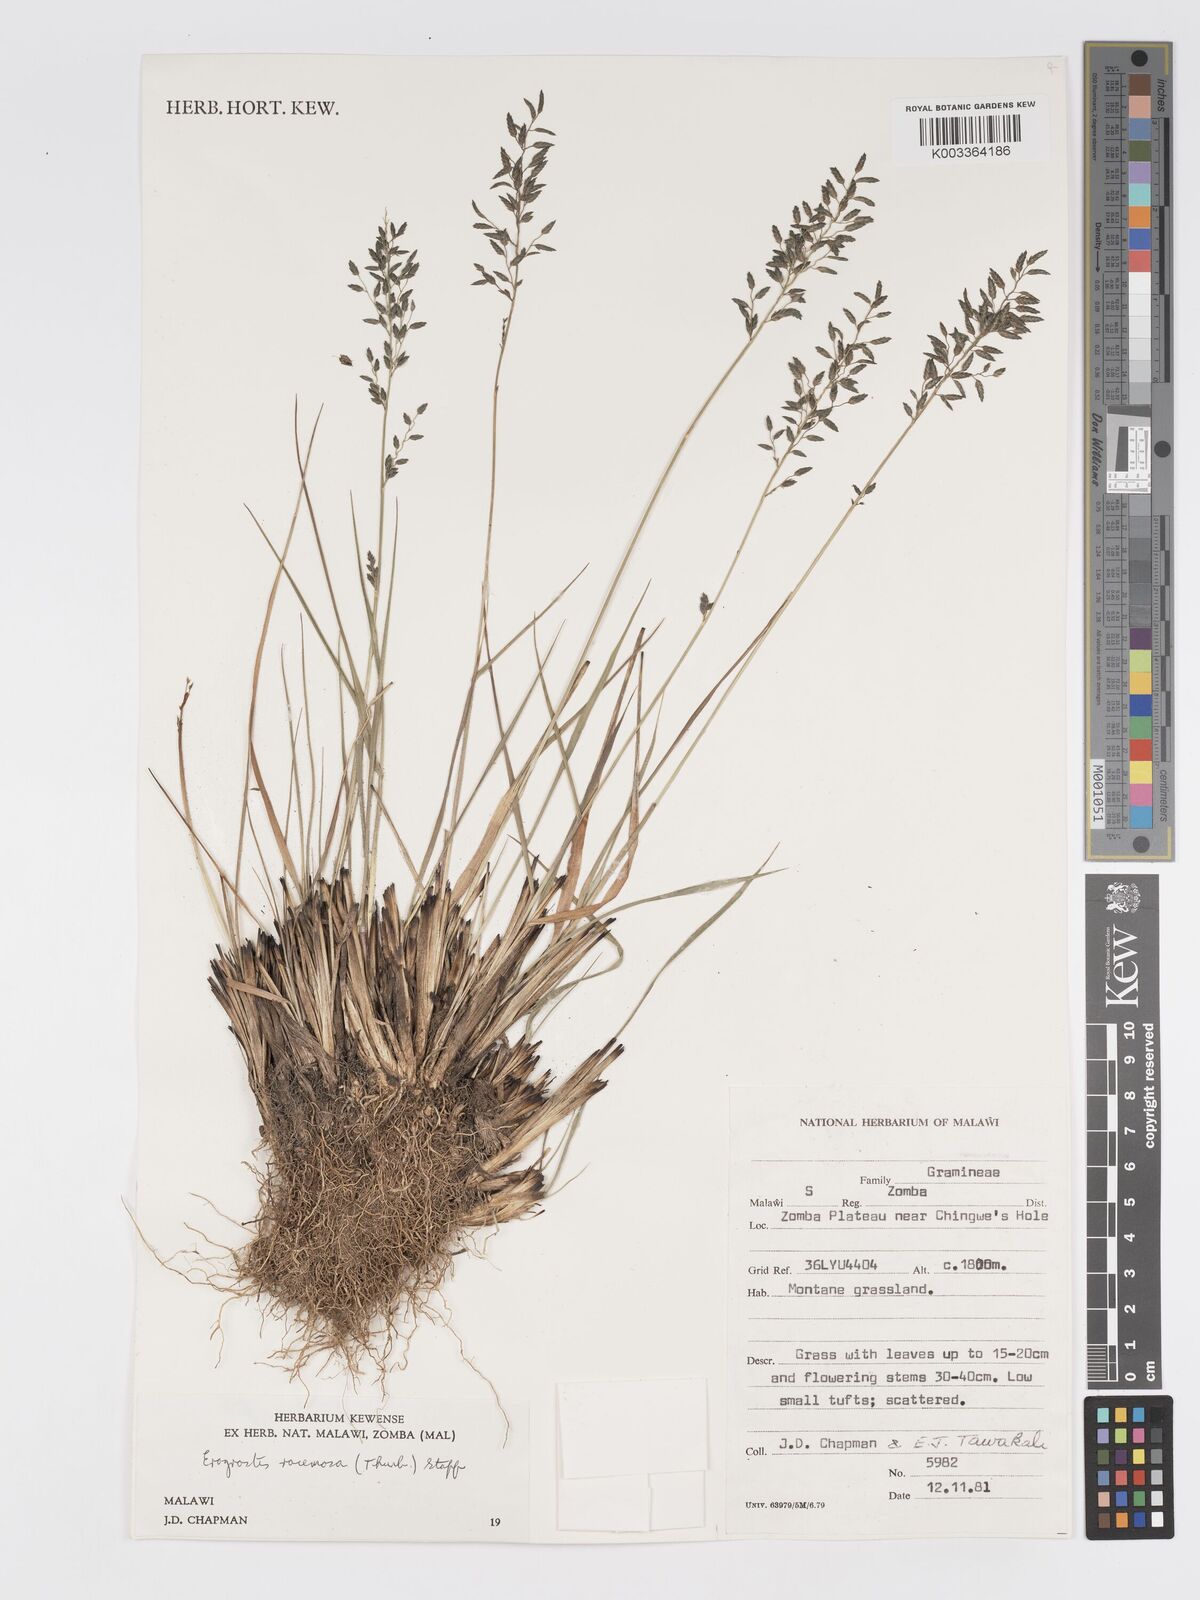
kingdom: Plantae
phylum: Tracheophyta
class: Liliopsida
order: Poales
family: Poaceae
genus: Eragrostis
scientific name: Eragrostis racemosa
